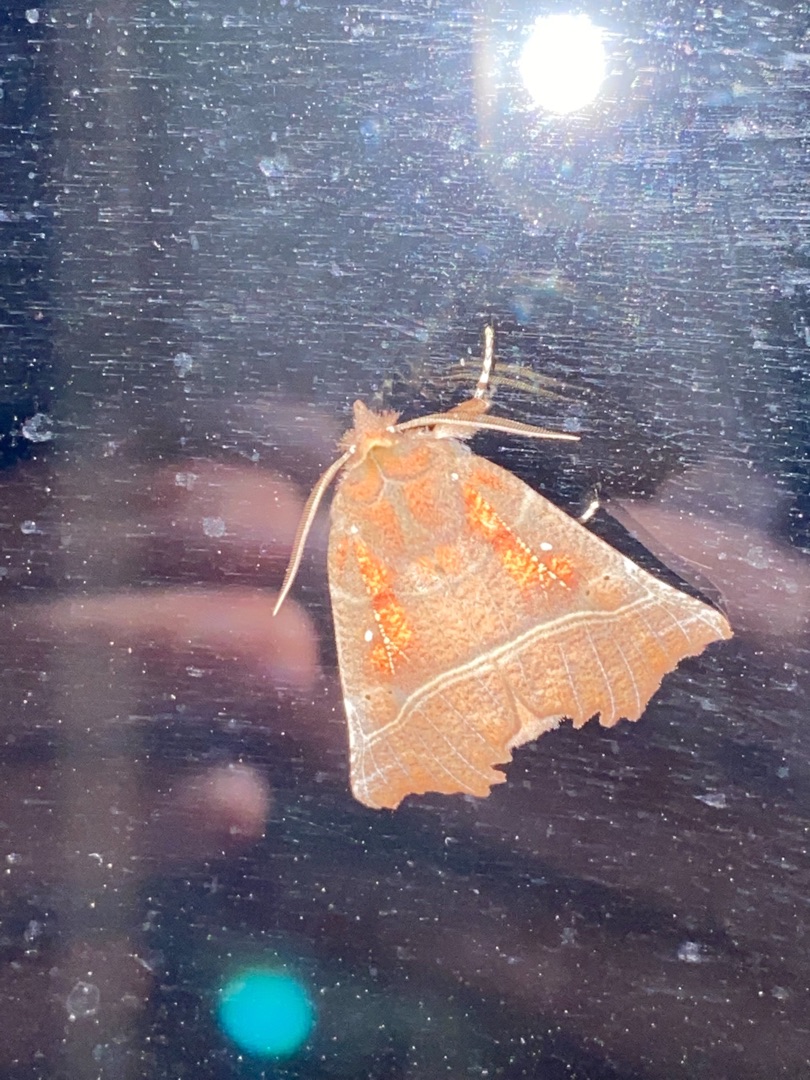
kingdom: Animalia
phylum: Arthropoda
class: Insecta
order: Lepidoptera
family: Erebidae
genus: Scoliopteryx
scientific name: Scoliopteryx libatrix
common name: Husmoderugle
